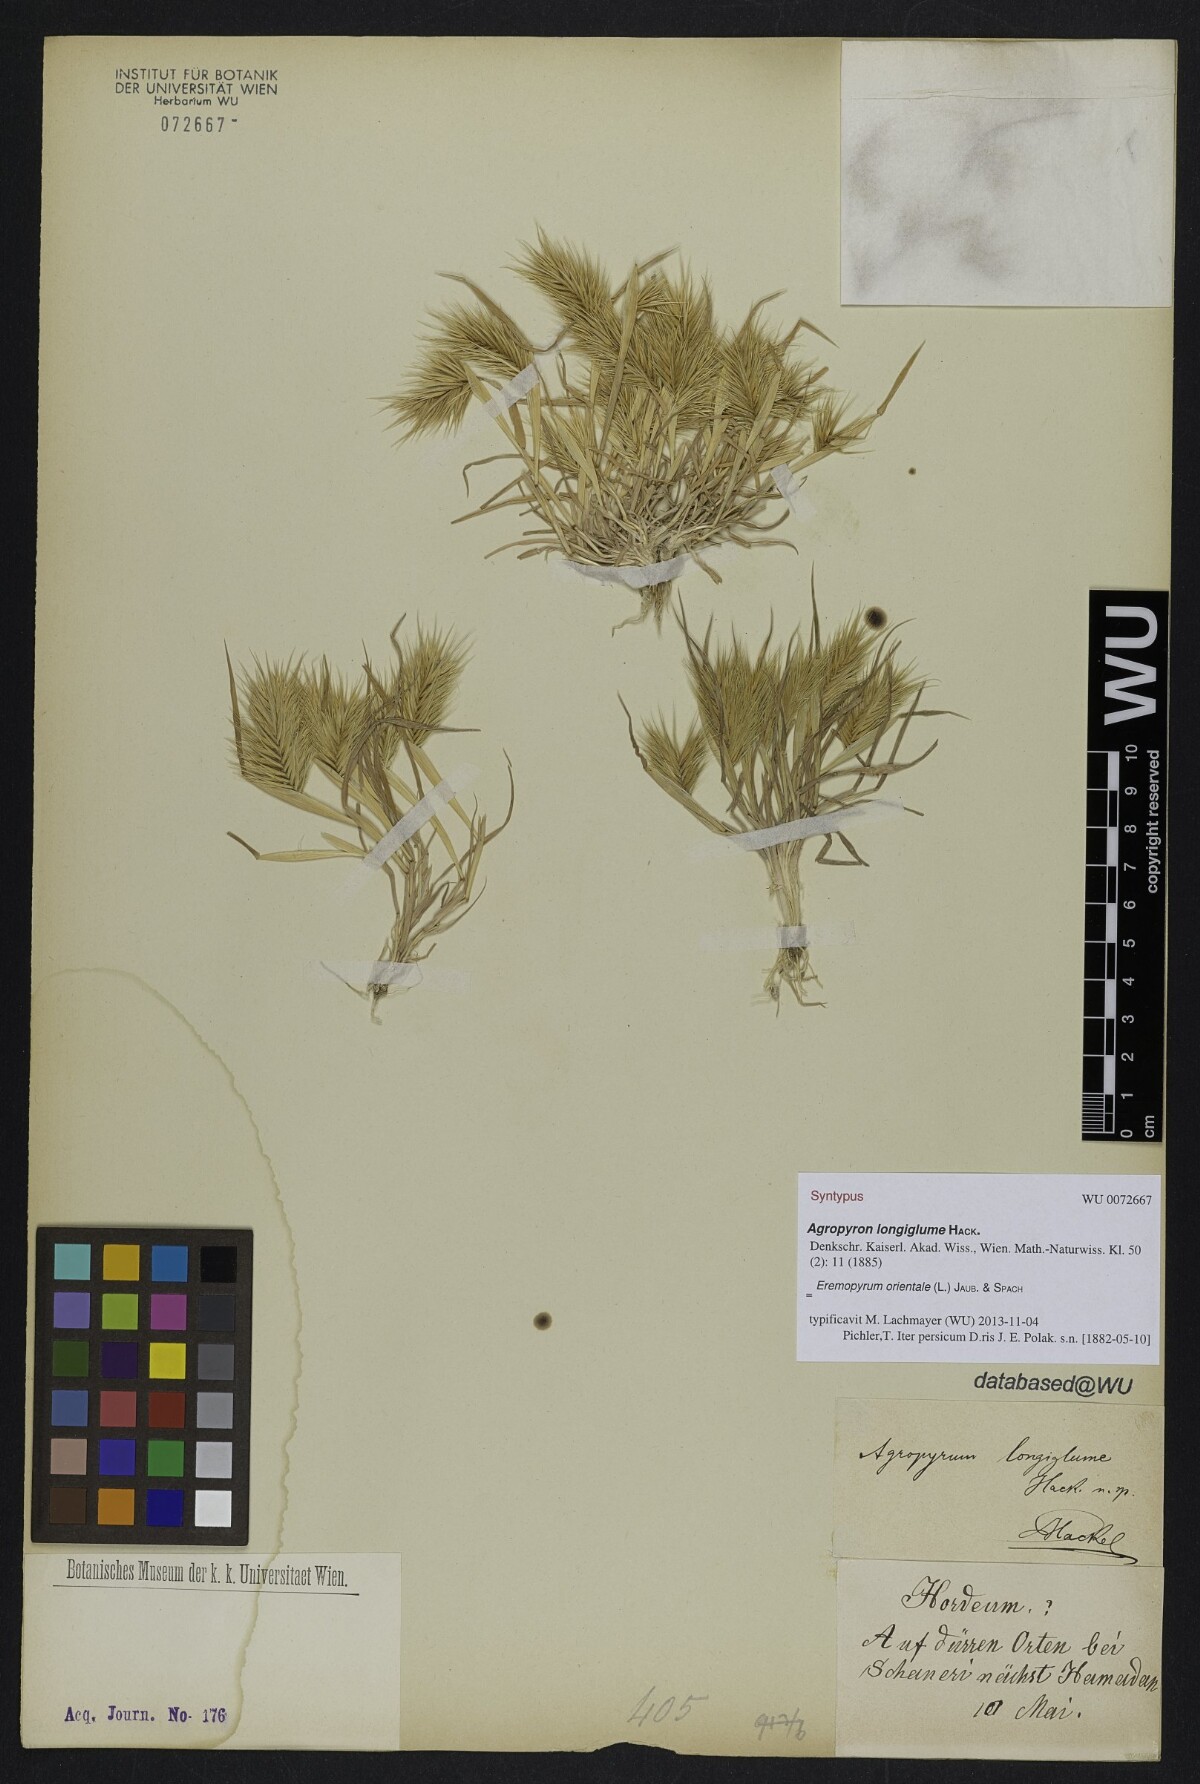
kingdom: Plantae
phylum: Tracheophyta
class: Liliopsida
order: Poales
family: Poaceae
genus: Eremopyrum
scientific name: Eremopyrum orientale
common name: Oriental false wheatgrass
